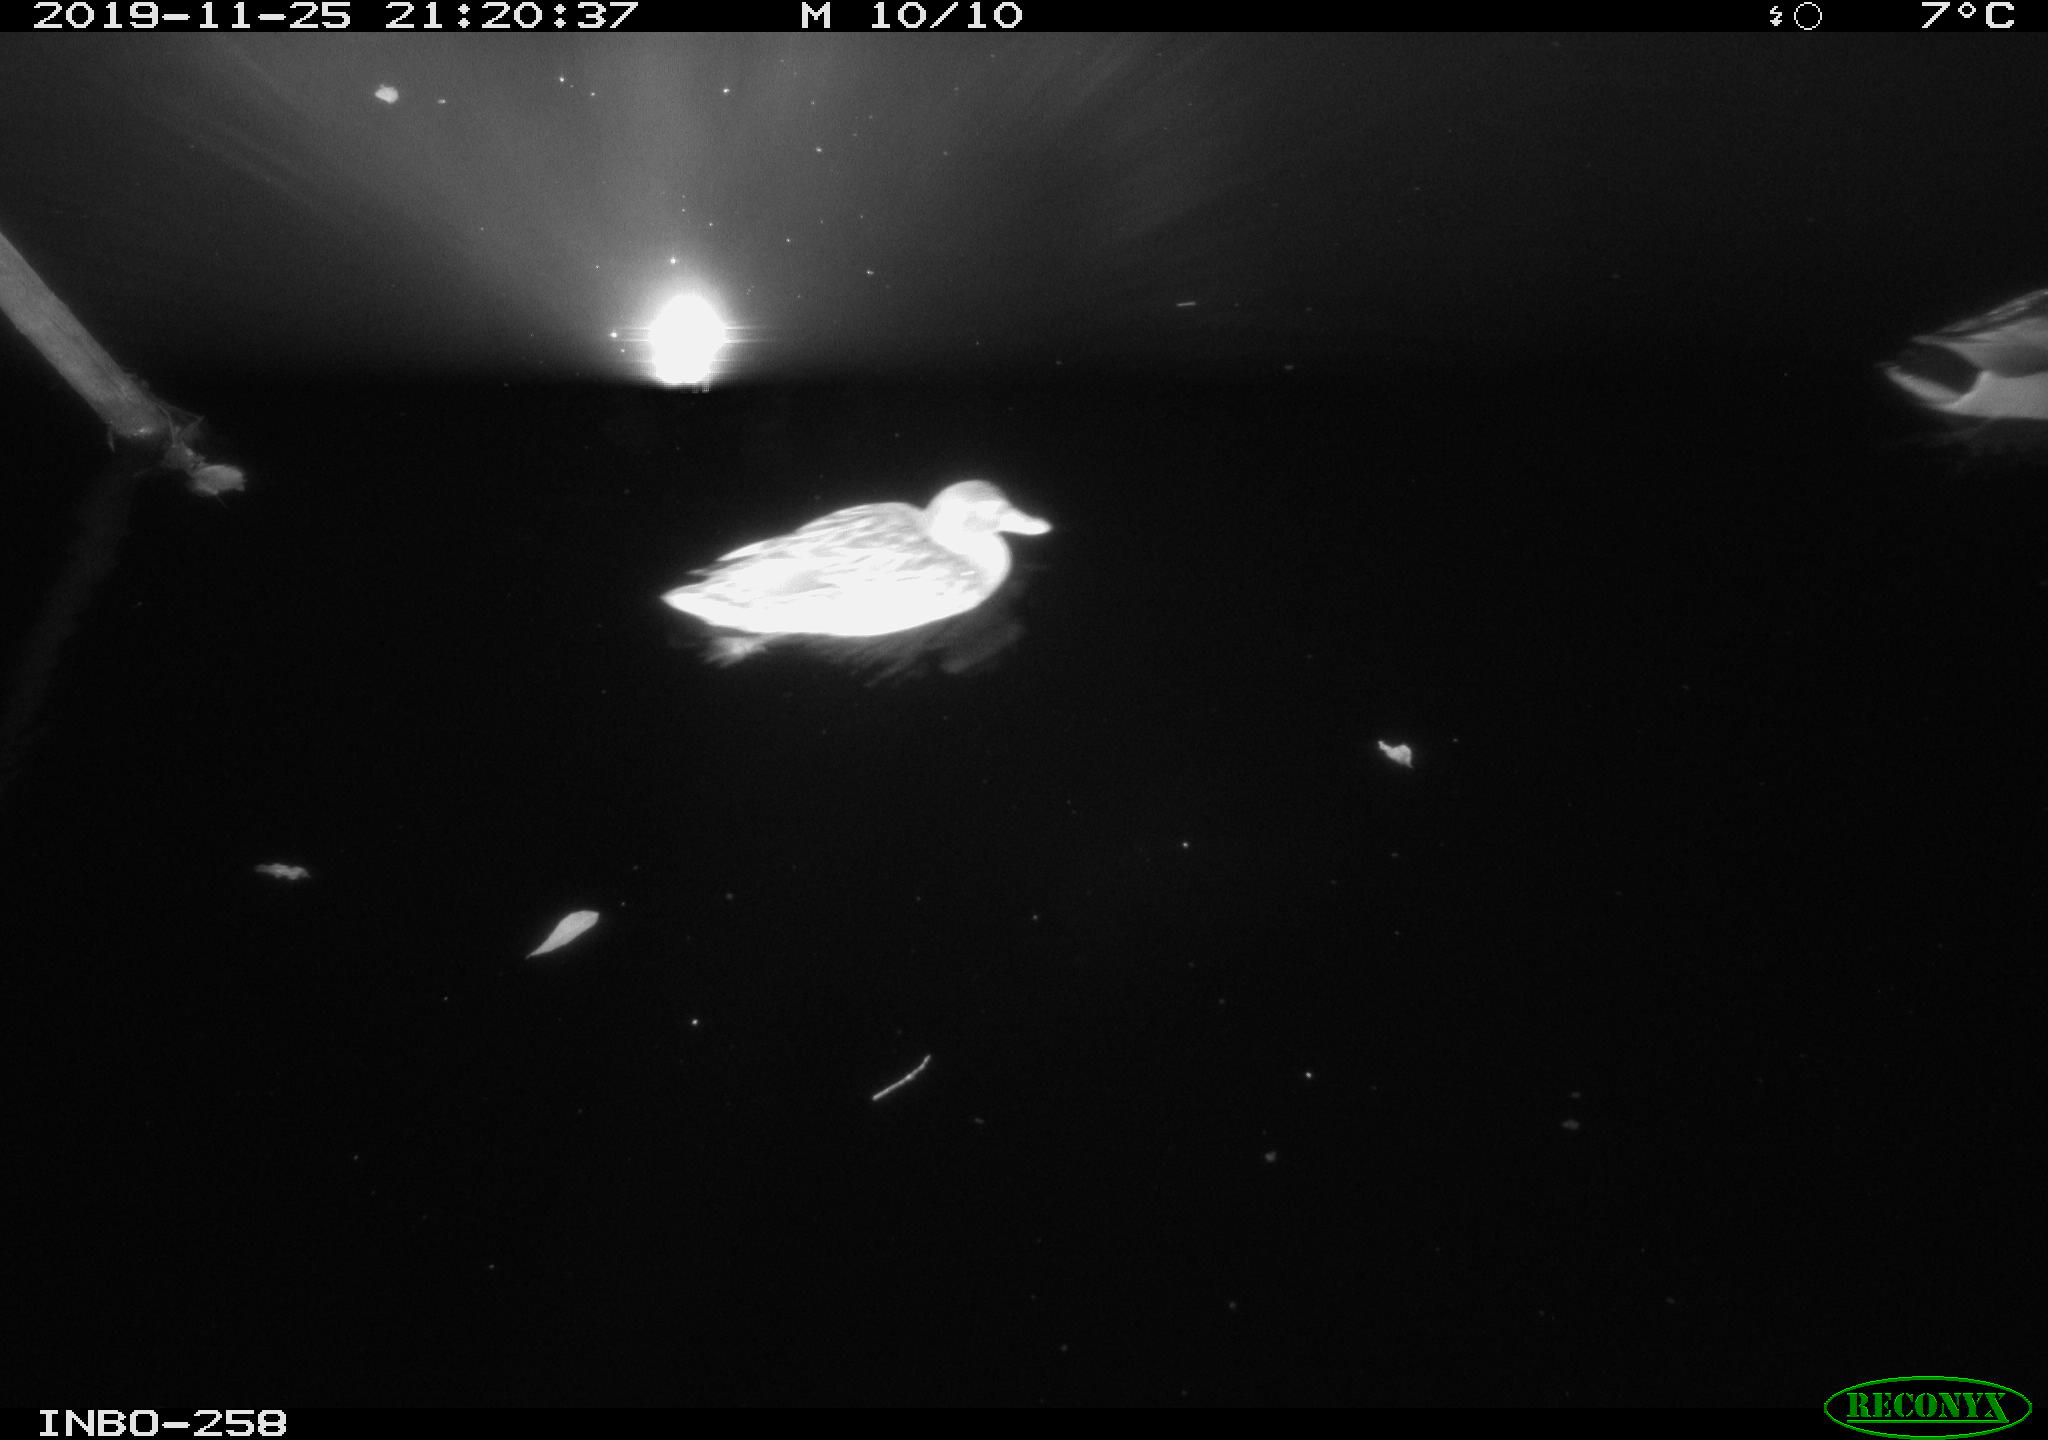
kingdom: Animalia
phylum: Chordata
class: Aves
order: Anseriformes
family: Anatidae
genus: Anas
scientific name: Anas platyrhynchos
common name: Mallard
